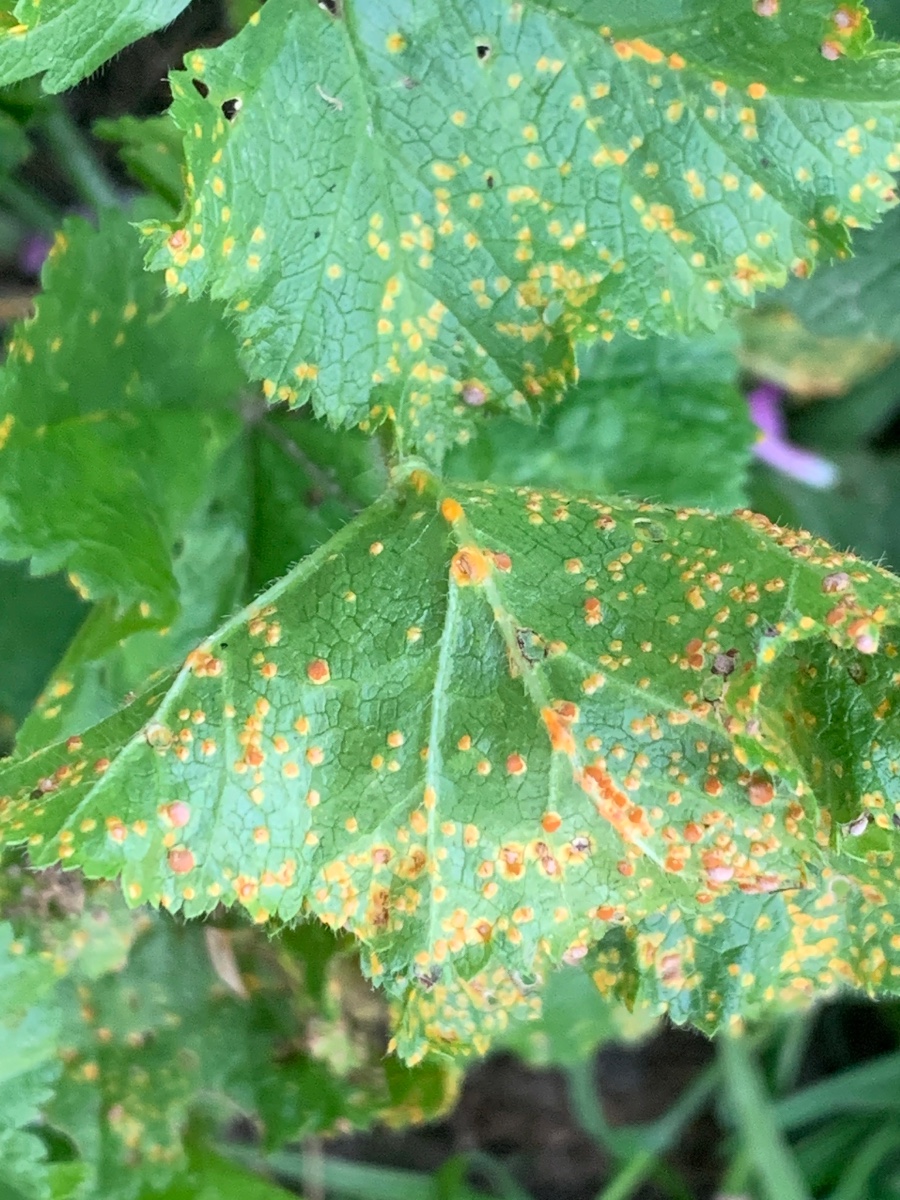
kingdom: Fungi
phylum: Basidiomycota
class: Pucciniomycetes
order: Pucciniales
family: Pucciniaceae
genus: Puccinia
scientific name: Puccinia malvacearum
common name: stokrose-tvecellerust
